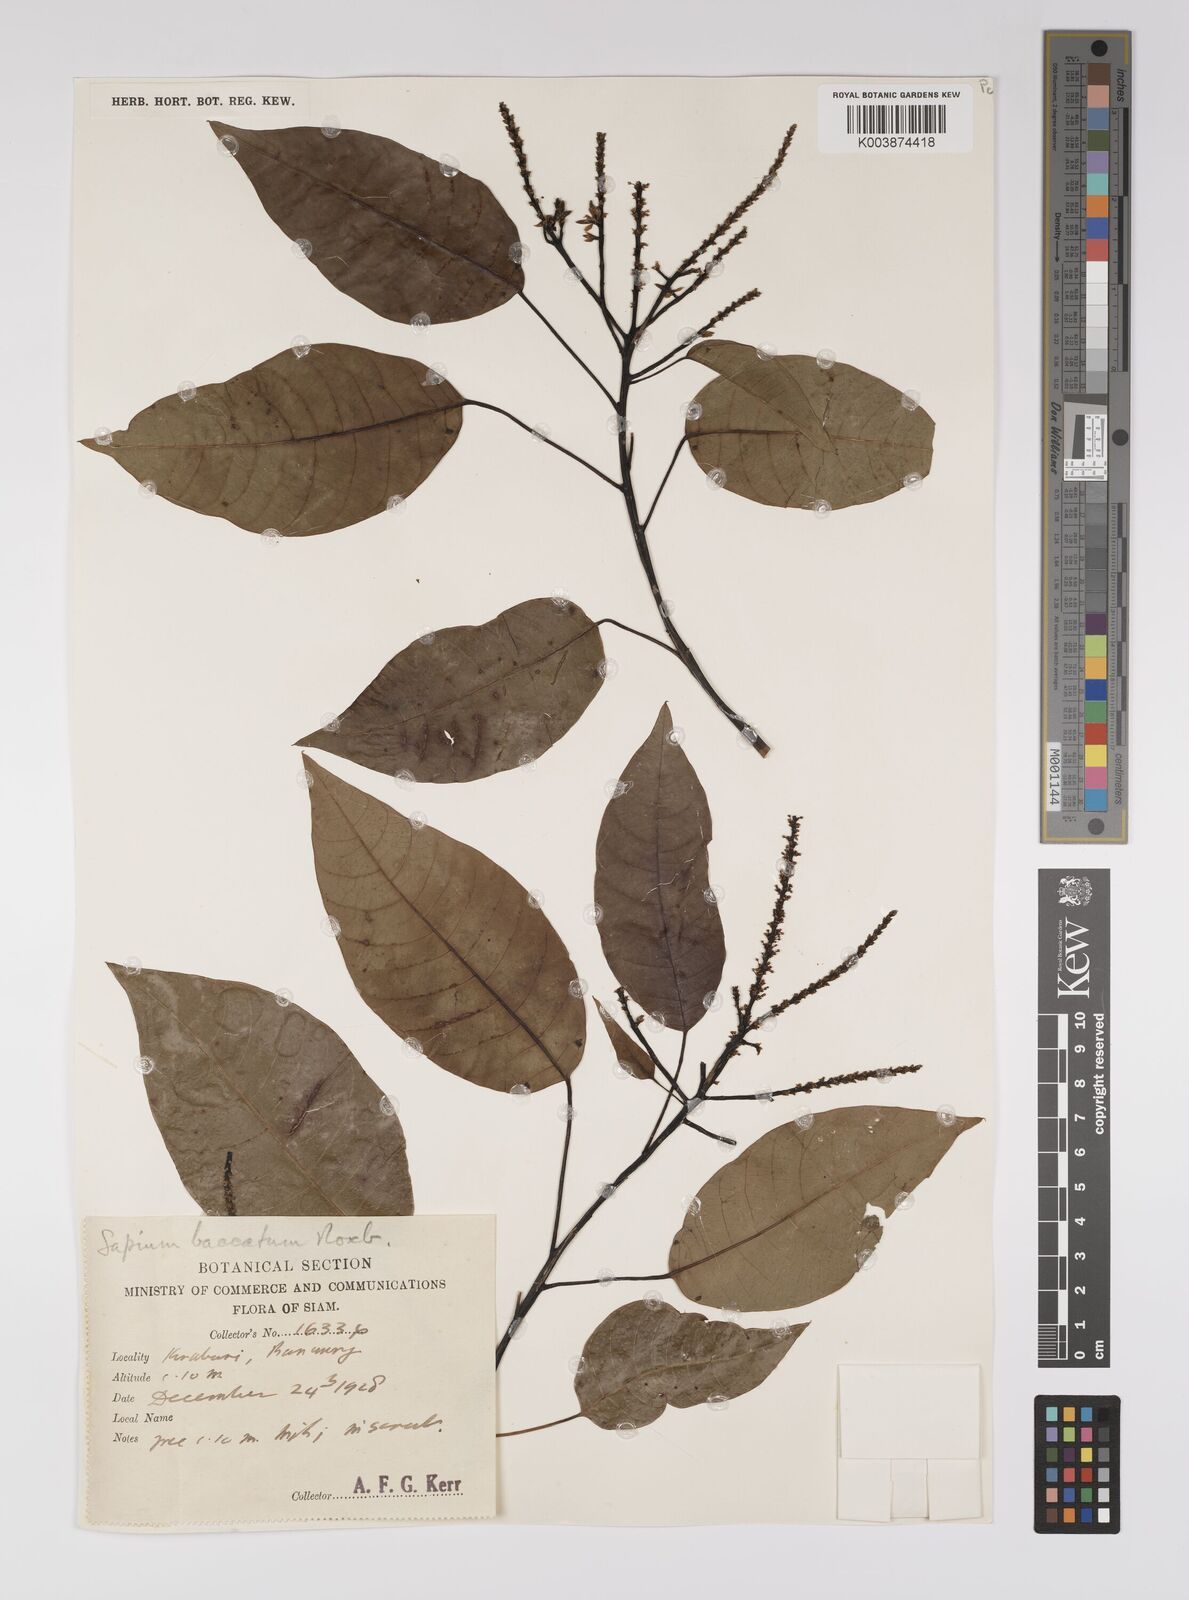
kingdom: Plantae
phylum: Tracheophyta
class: Magnoliopsida
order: Malpighiales
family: Euphorbiaceae
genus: Balakata
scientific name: Balakata baccata
